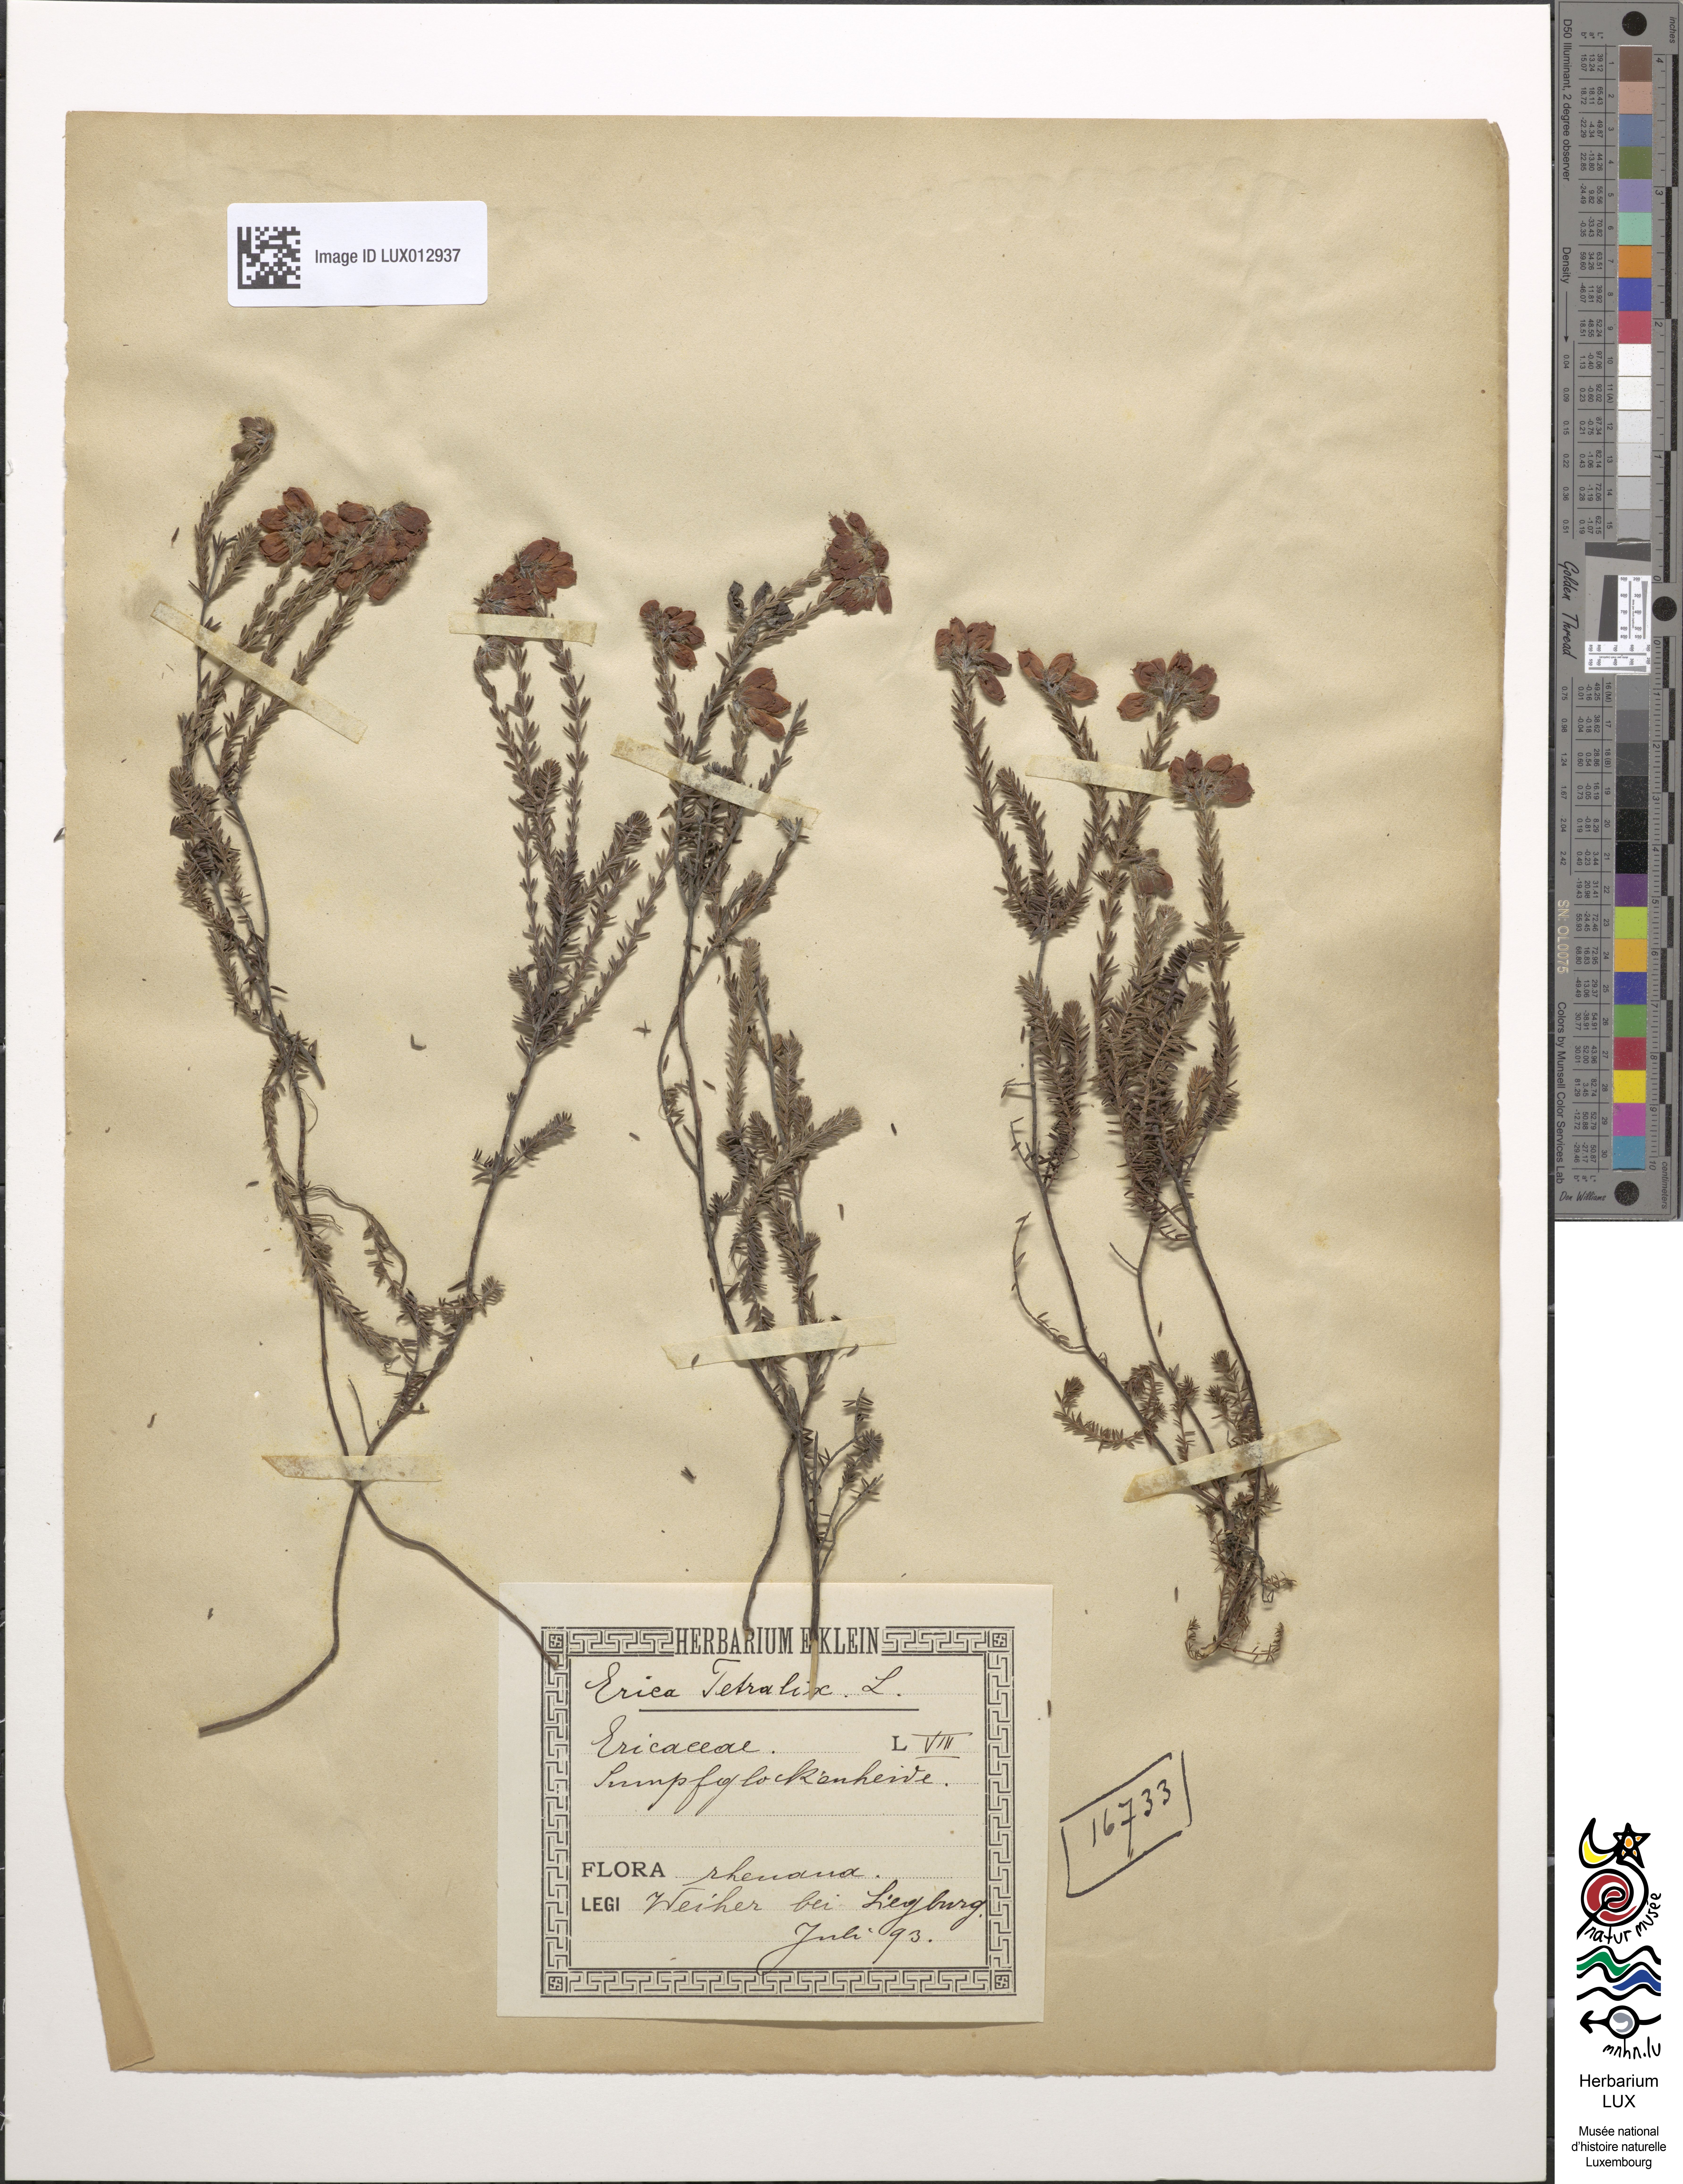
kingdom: Plantae
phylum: Tracheophyta
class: Magnoliopsida
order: Ericales
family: Ericaceae
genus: Erica
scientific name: Erica tetralix
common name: Cross-leaved heath
